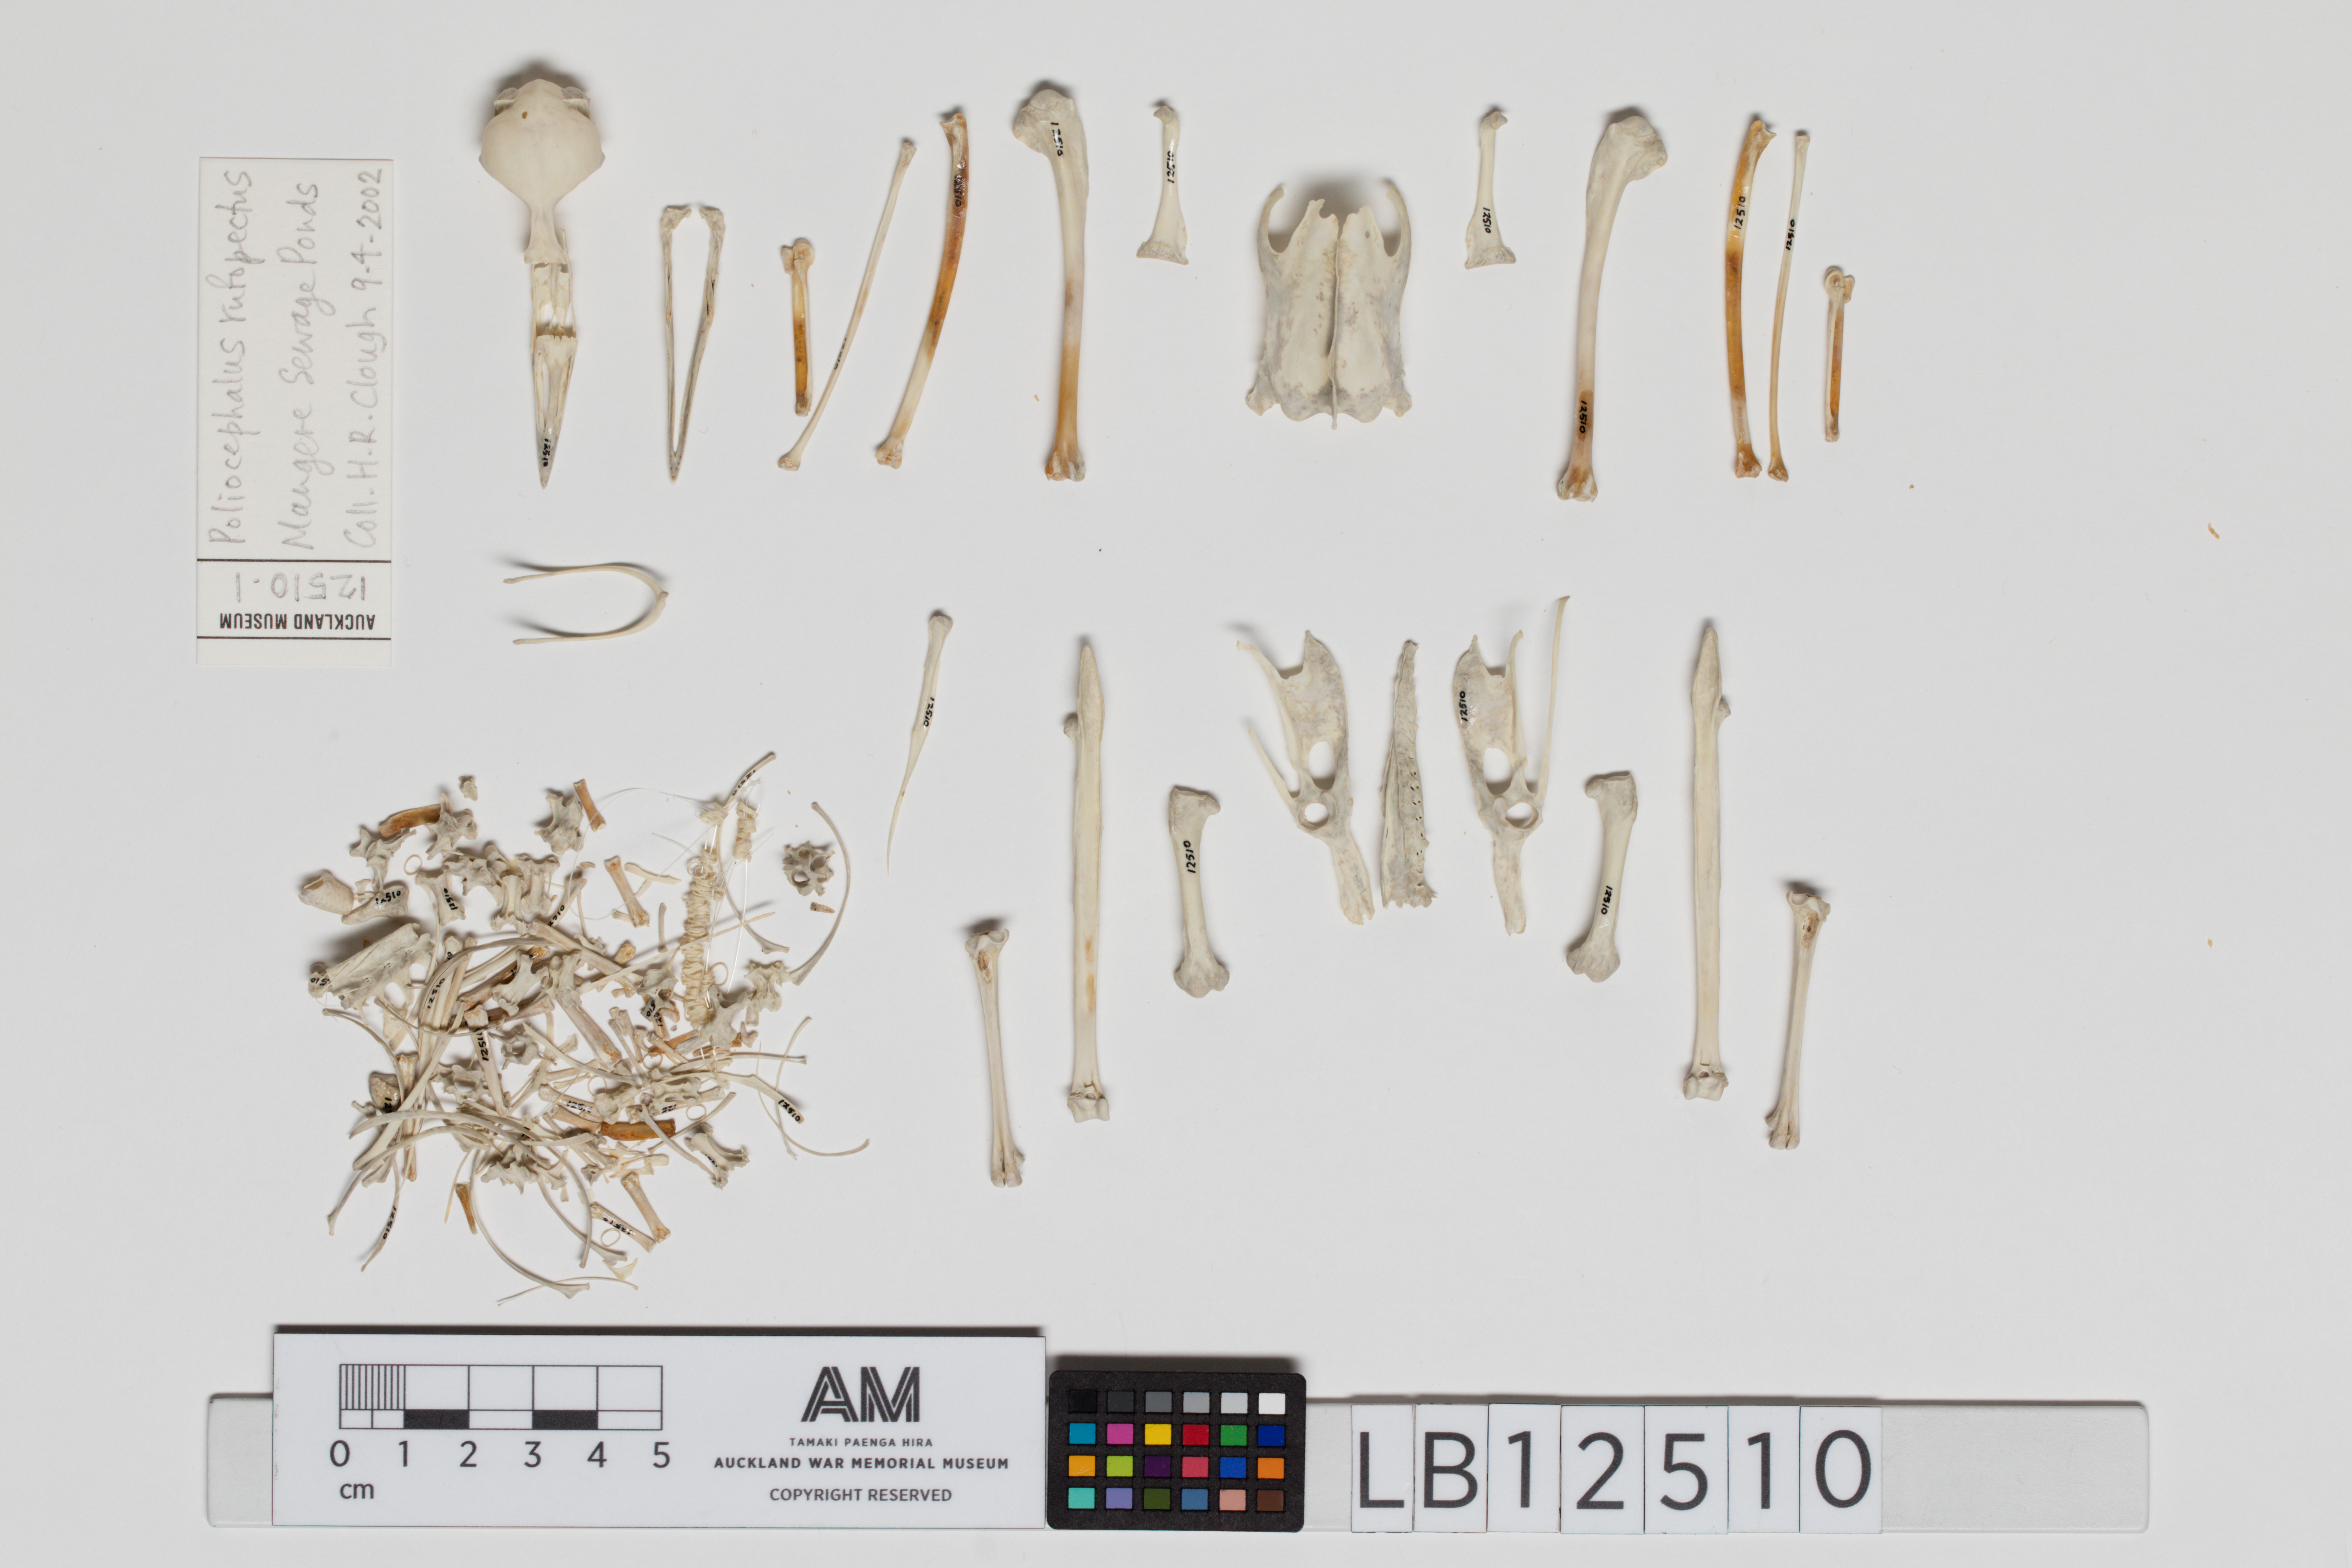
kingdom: Animalia
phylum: Chordata
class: Aves
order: Podicipediformes
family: Podicipedidae
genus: Poliocephalus
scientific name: Poliocephalus rufopectus
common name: New zealand grebe
